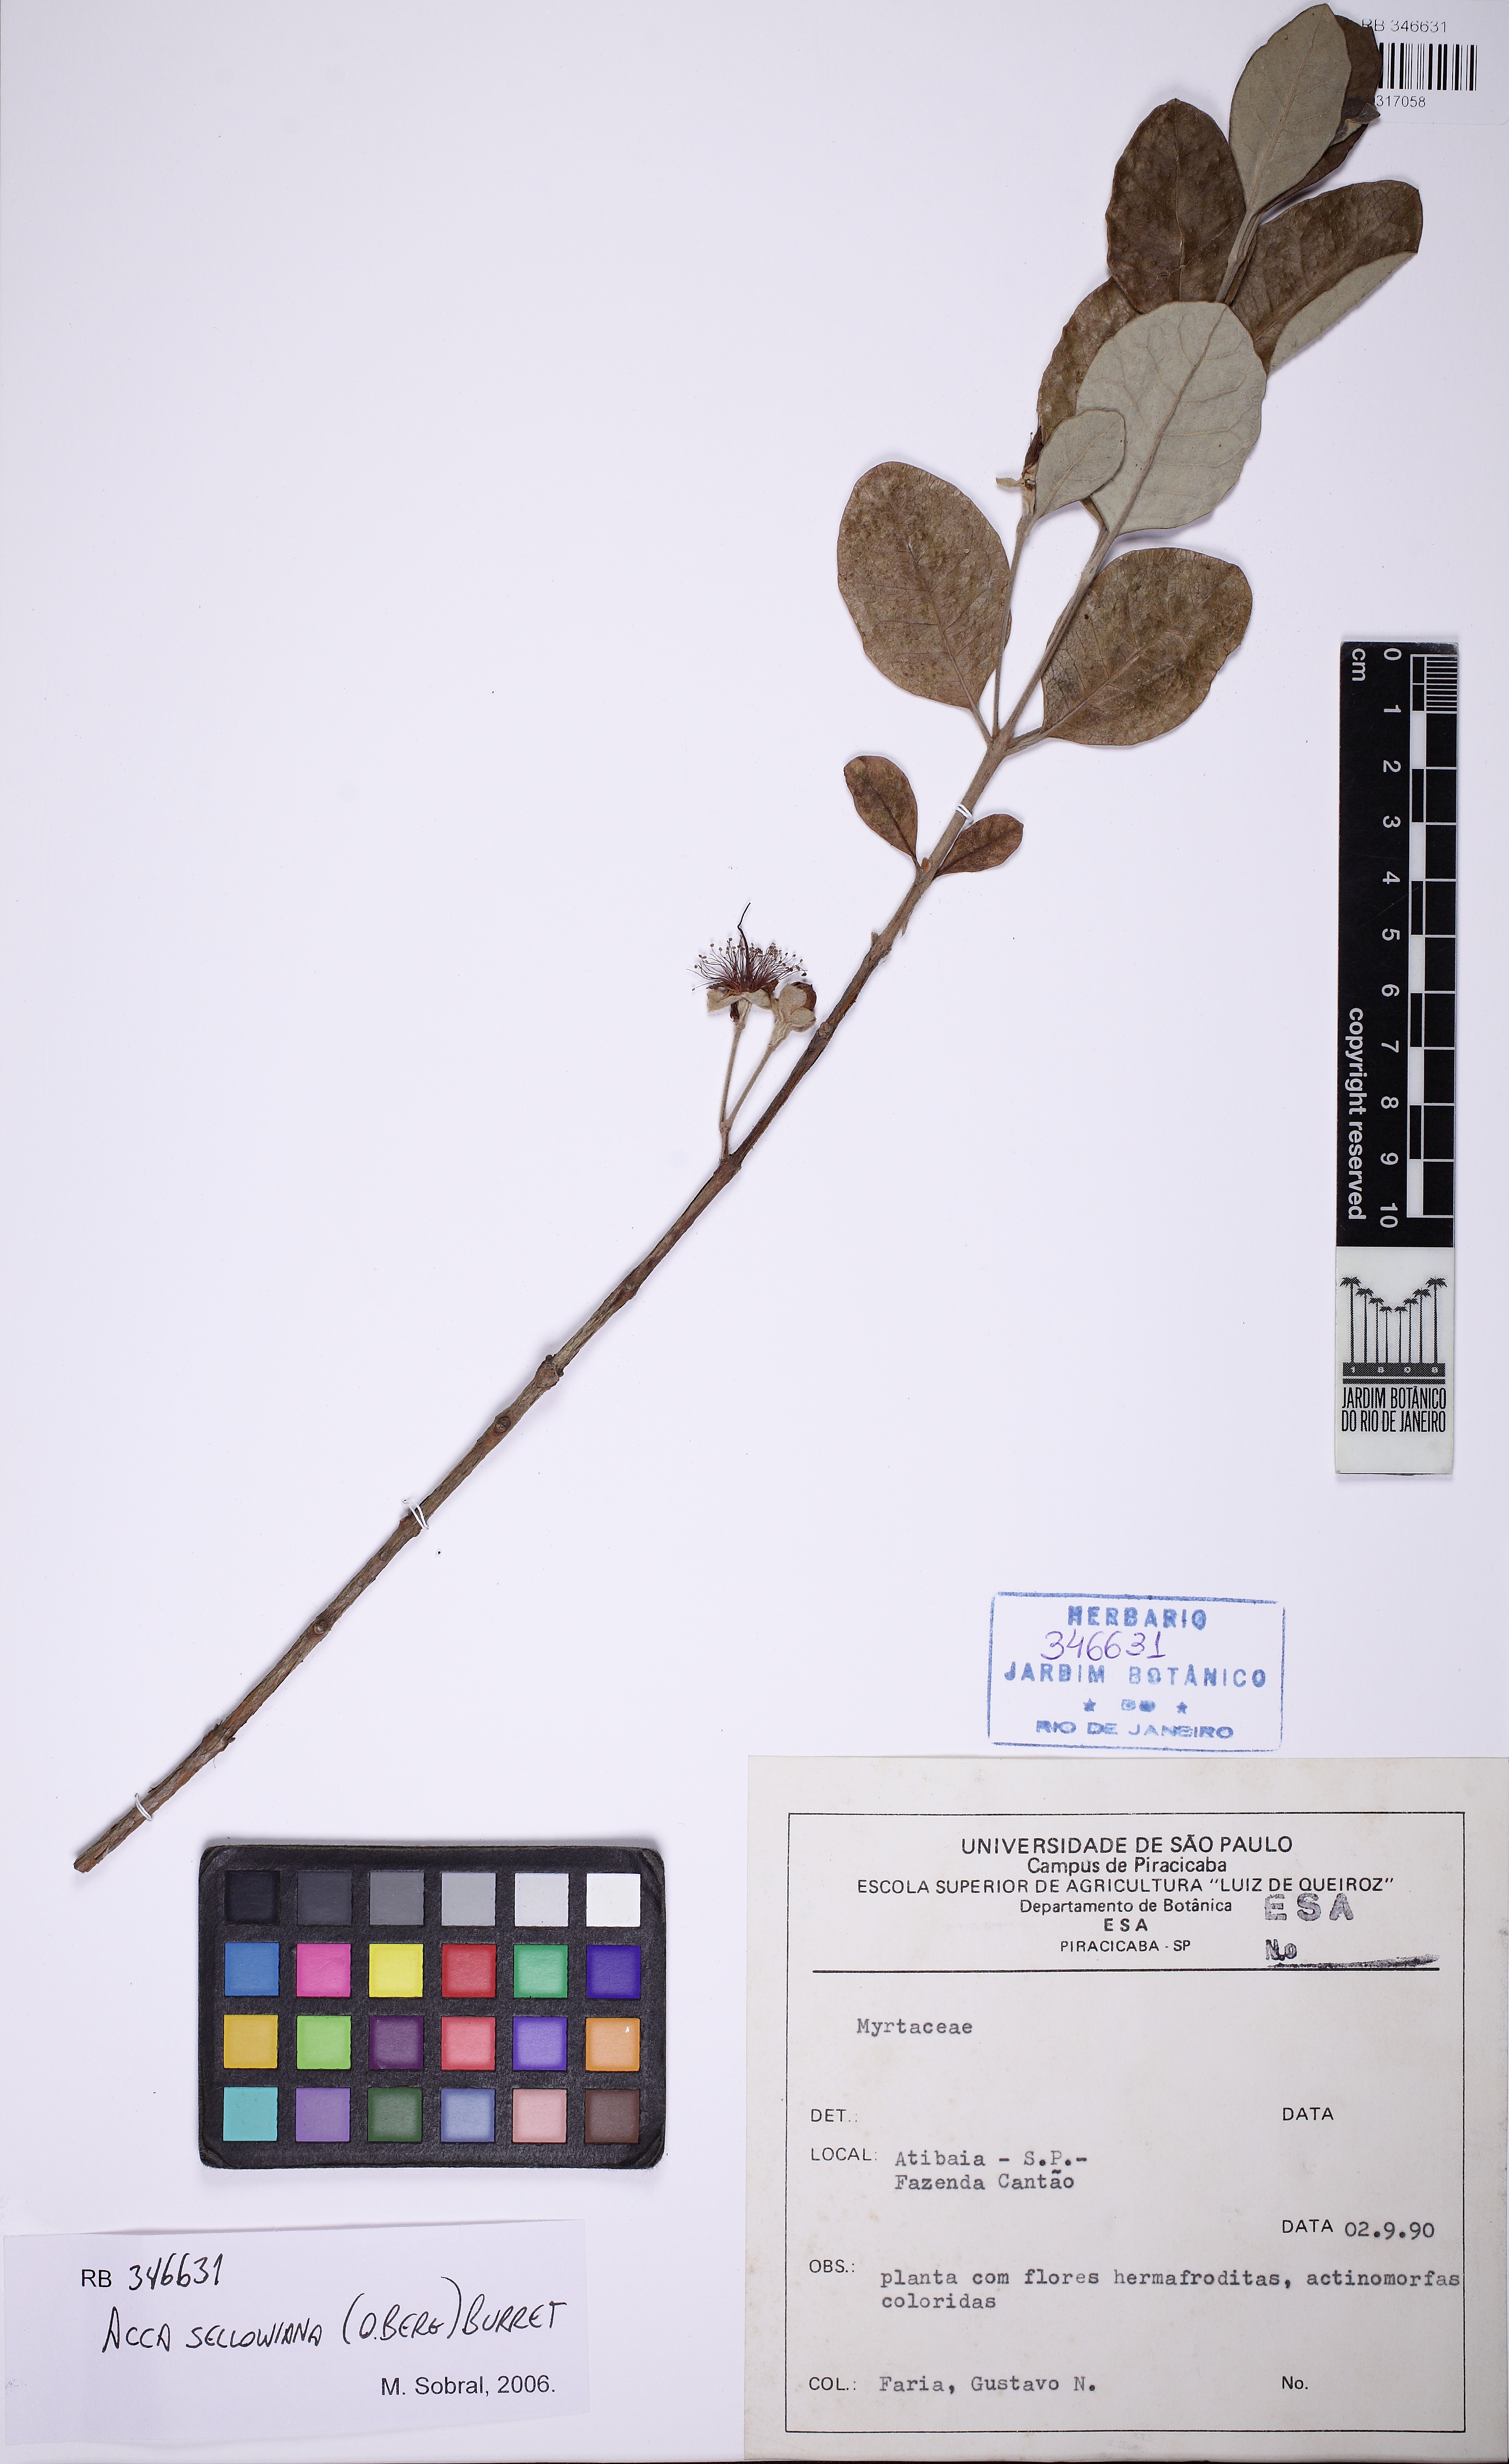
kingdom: Plantae
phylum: Tracheophyta
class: Magnoliopsida
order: Myrtales
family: Myrtaceae
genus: Feijoa
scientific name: Feijoa sellowiana
